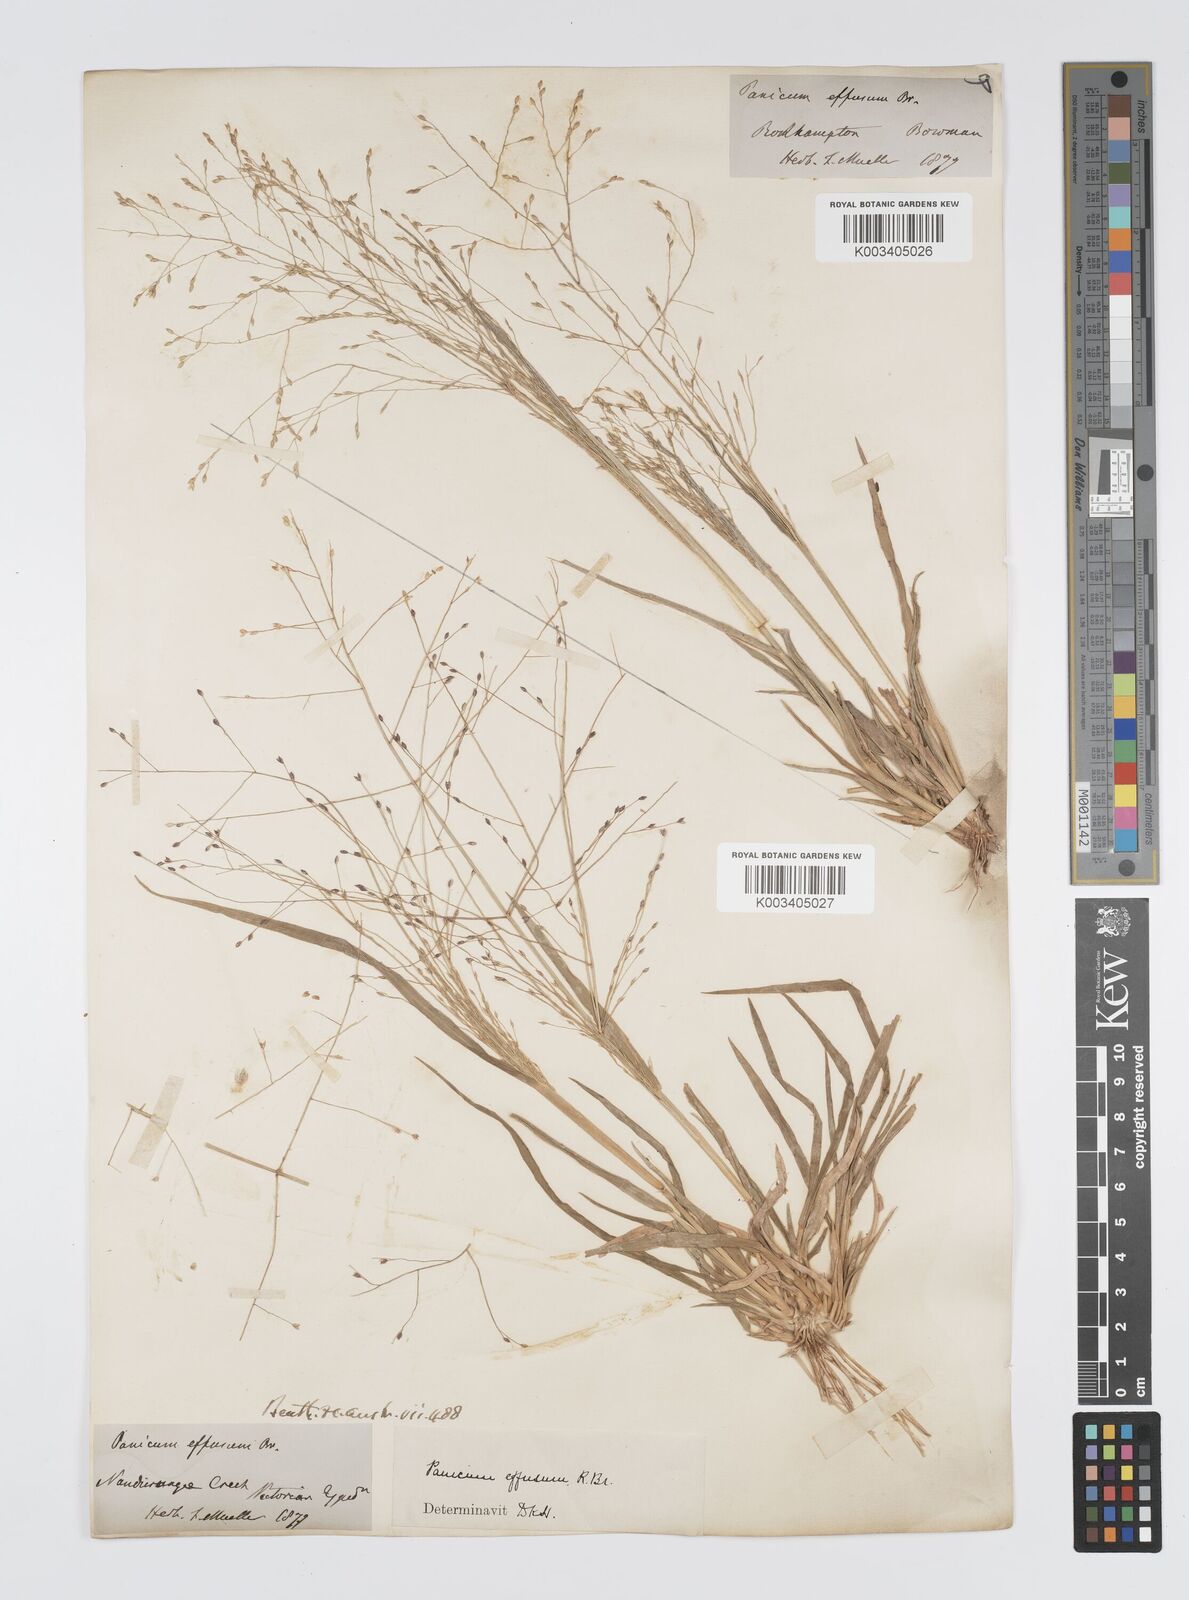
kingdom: Plantae
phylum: Tracheophyta
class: Liliopsida
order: Poales
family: Poaceae
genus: Panicum
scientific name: Panicum effusum
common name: Hairy panic grass
